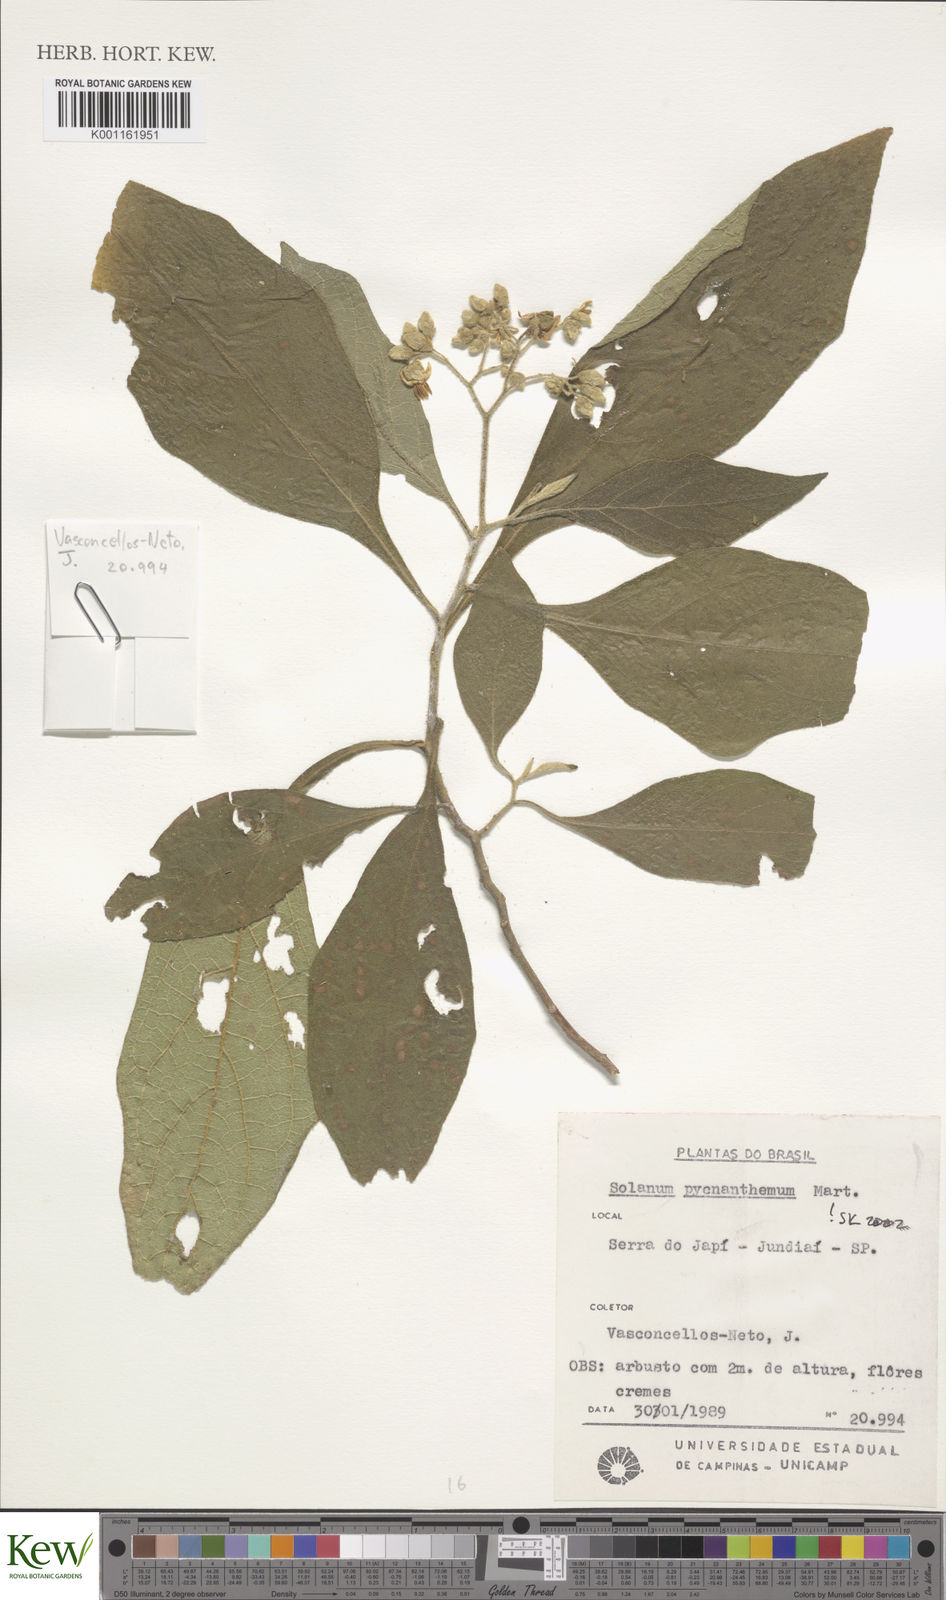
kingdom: Plantae
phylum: Tracheophyta
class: Magnoliopsida
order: Solanales
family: Solanaceae
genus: Solanum
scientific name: Solanum pseudoquina
